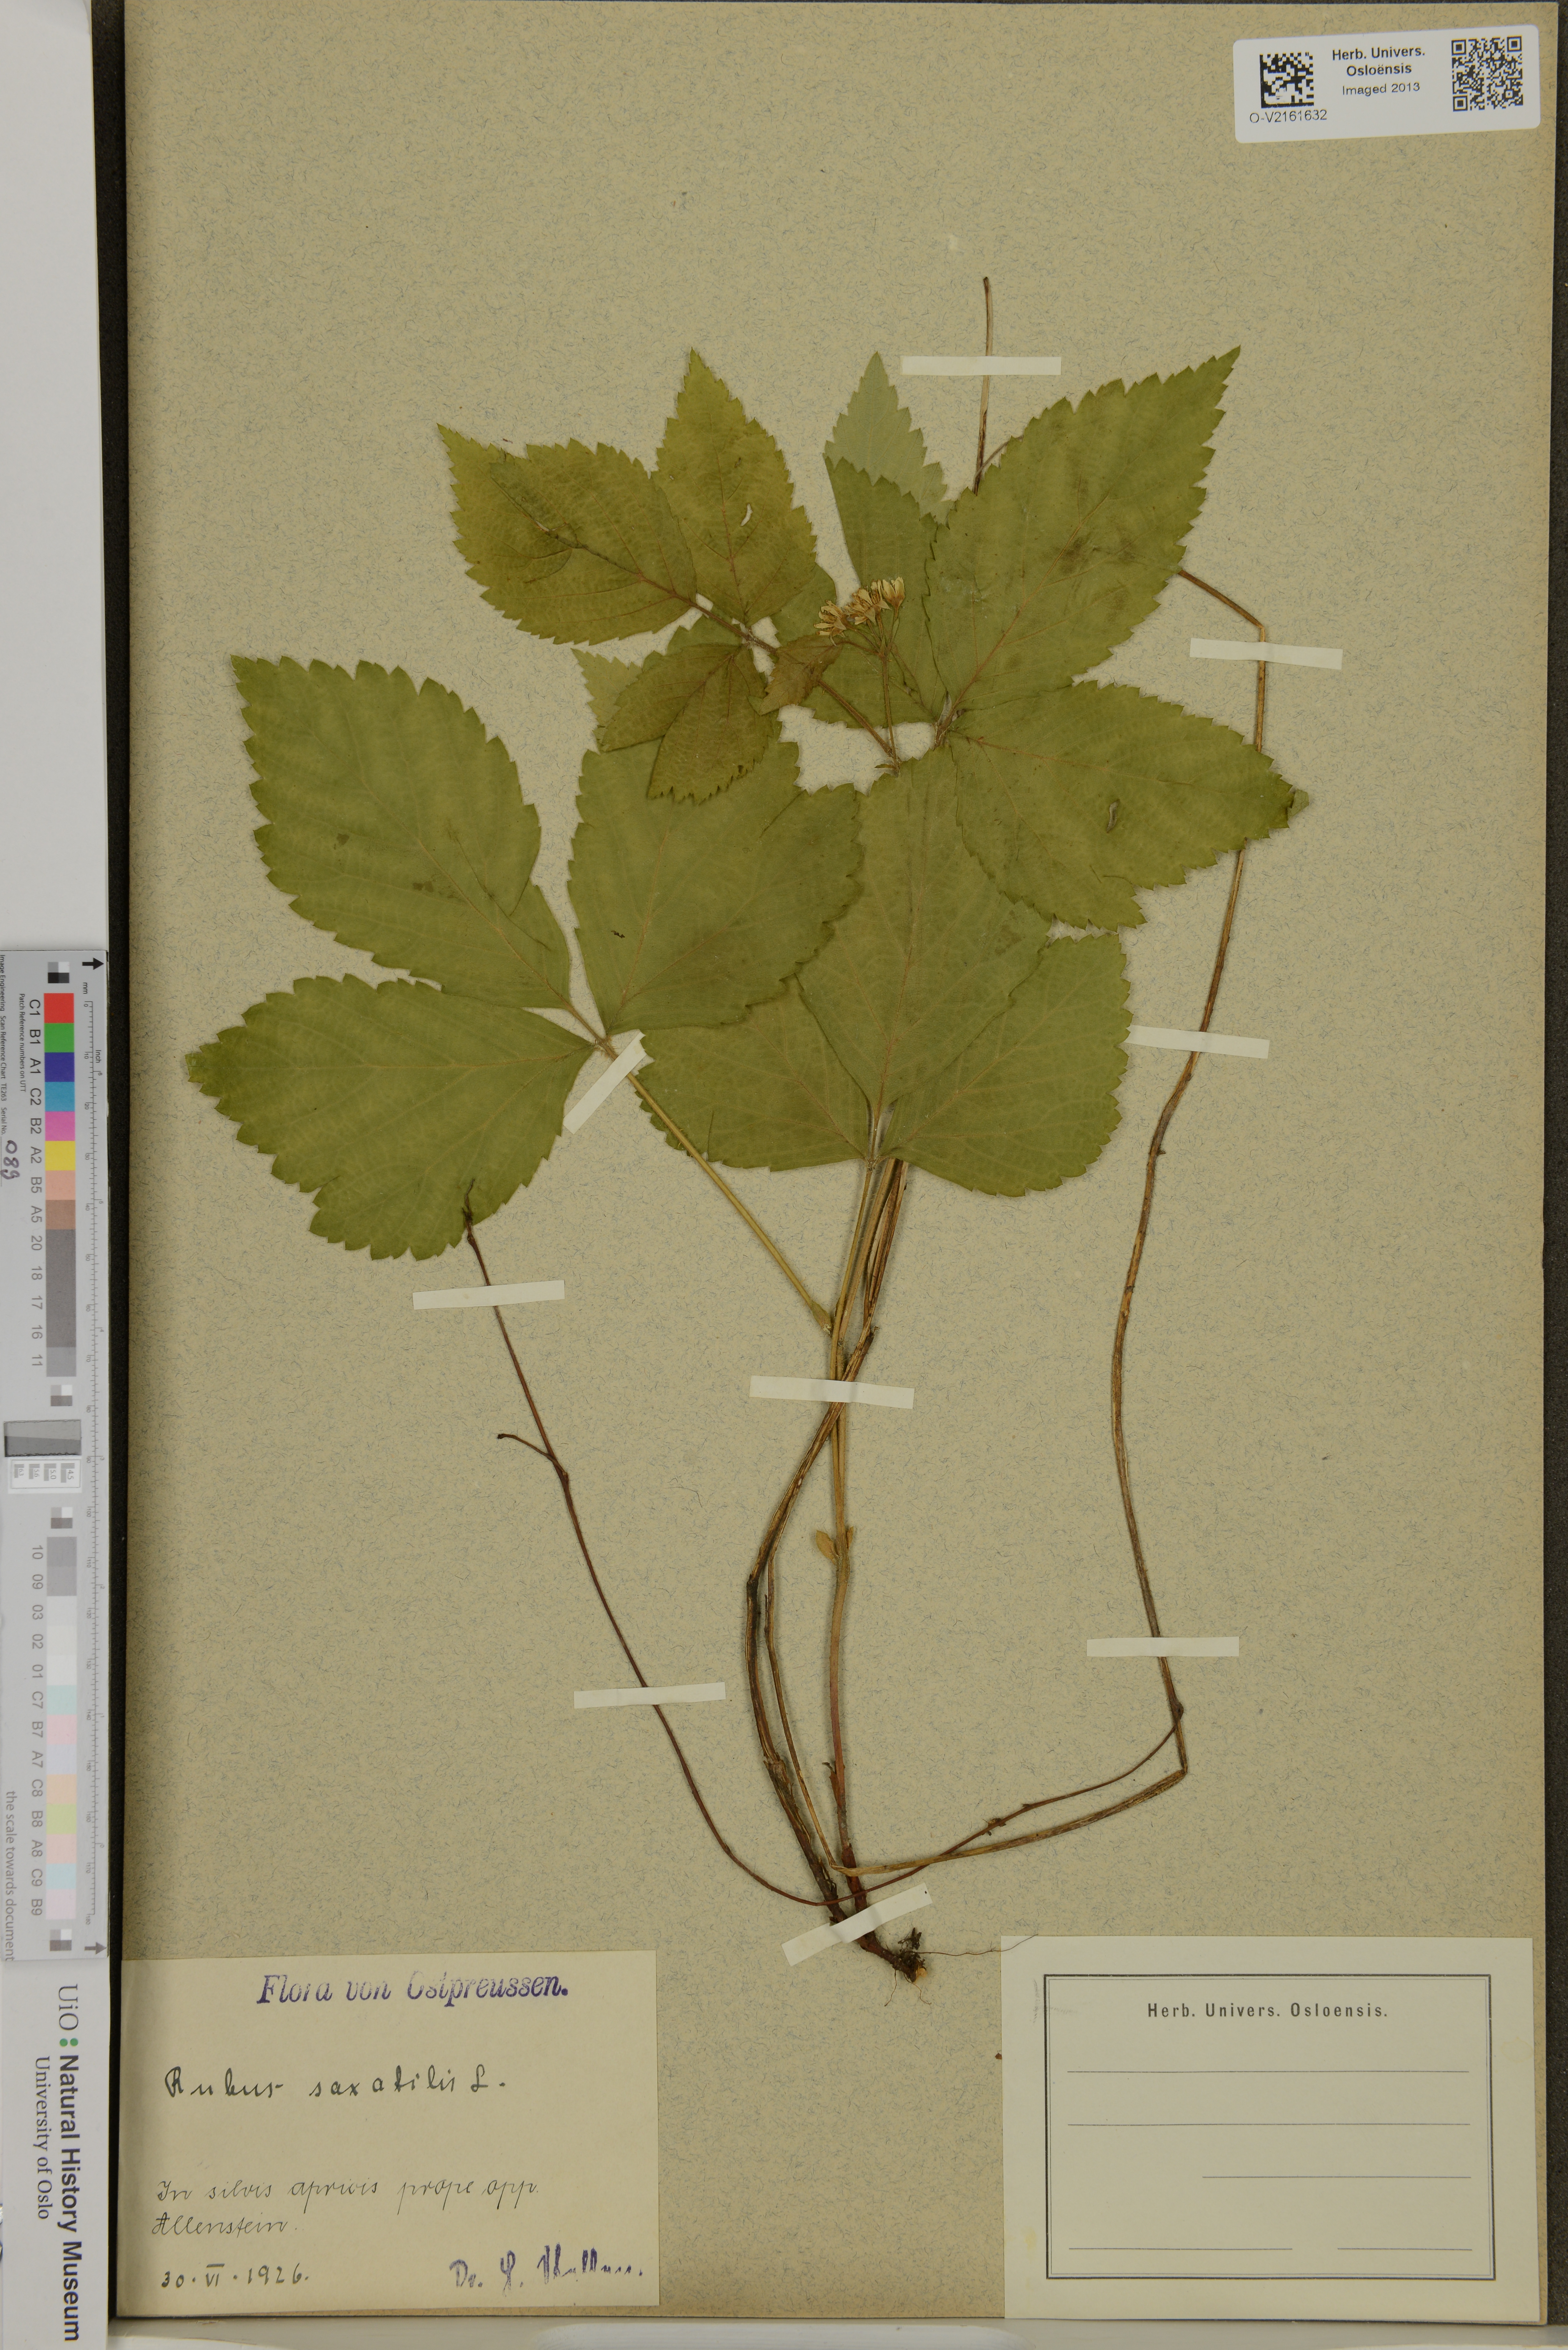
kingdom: Plantae
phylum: Tracheophyta
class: Magnoliopsida
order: Rosales
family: Rosaceae
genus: Rubus
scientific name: Rubus saxatilis
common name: Stone bramble
